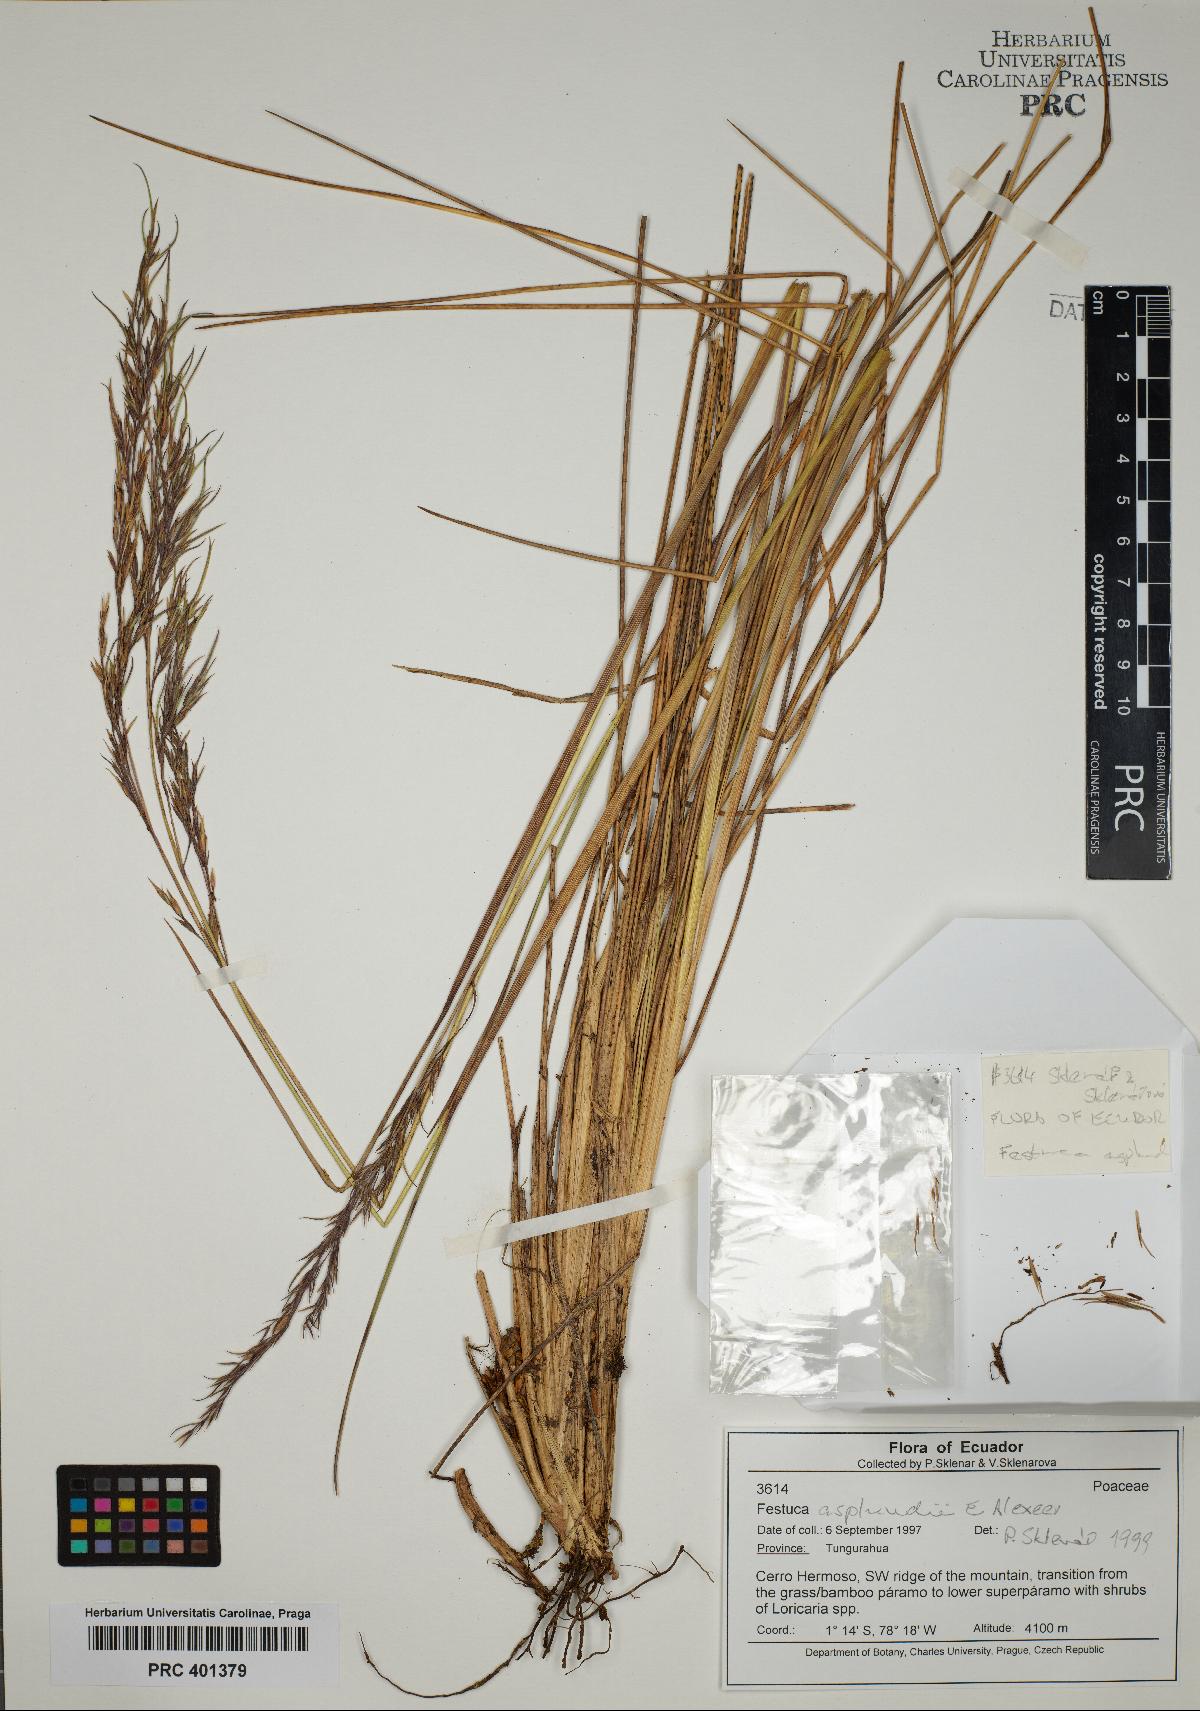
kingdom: Plantae
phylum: Tracheophyta
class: Liliopsida
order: Poales
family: Poaceae
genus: Festuca
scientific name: Festuca asplundii
